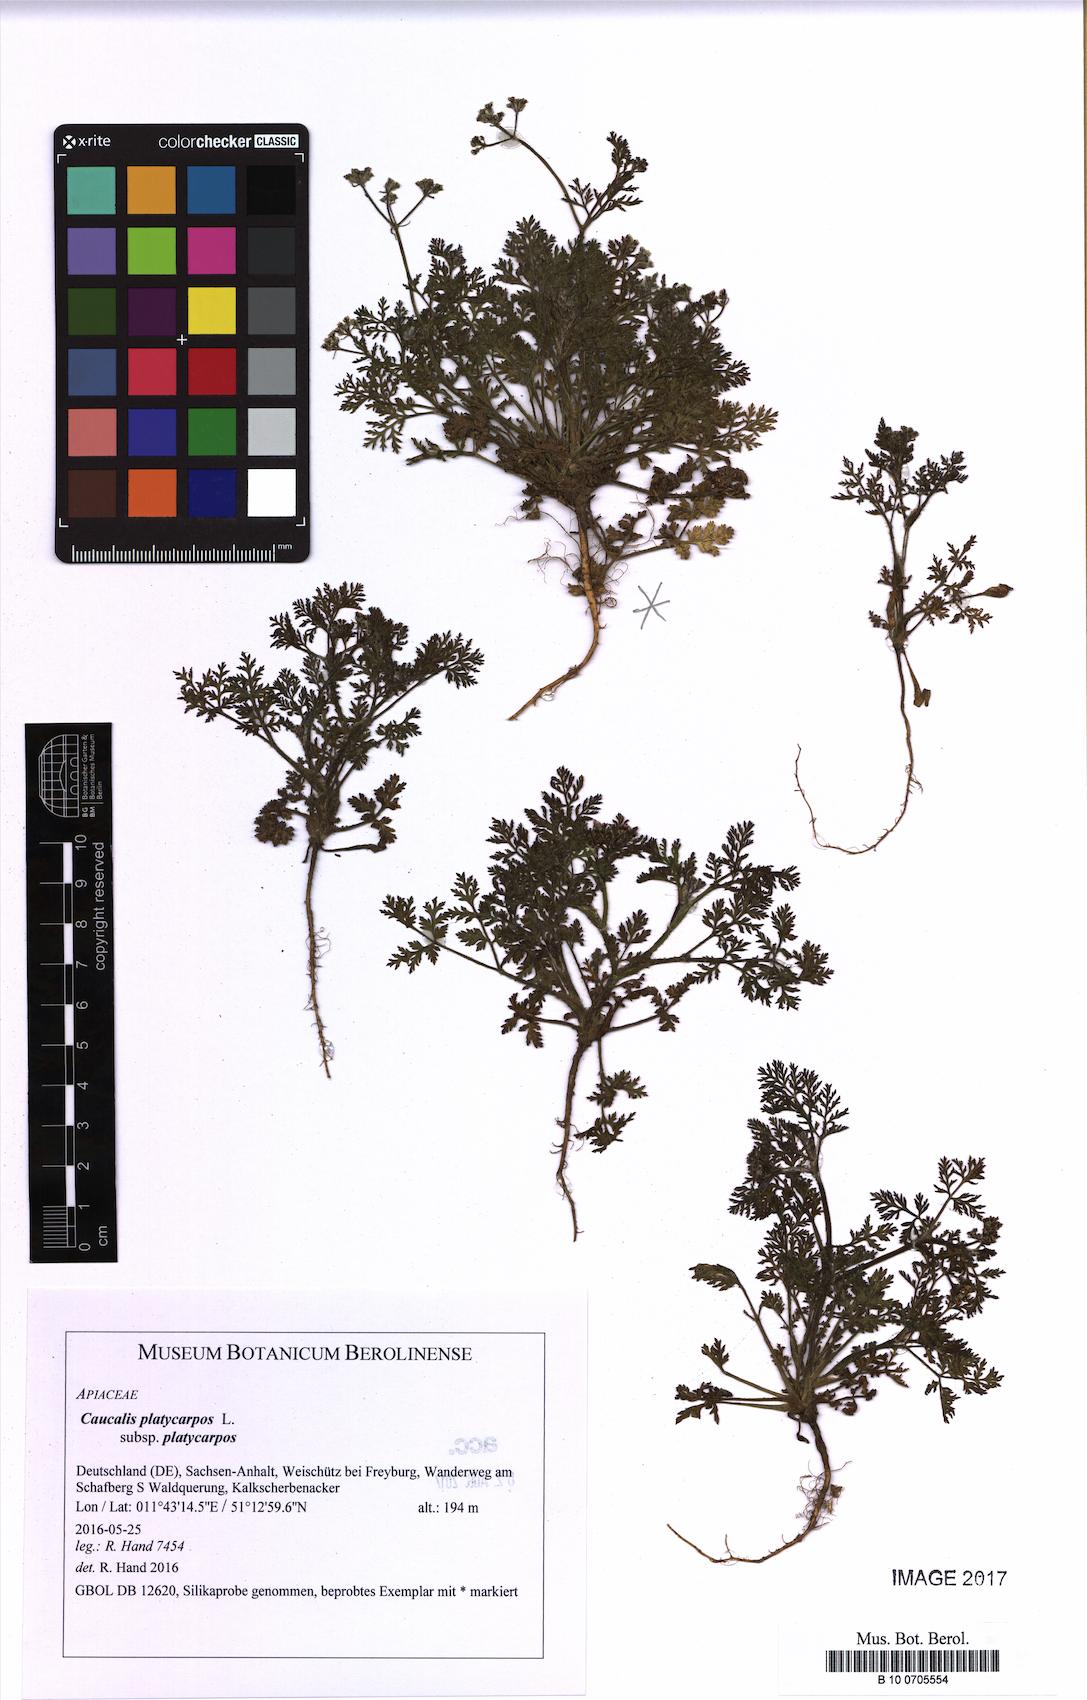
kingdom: Plantae
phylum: Tracheophyta
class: Magnoliopsida
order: Apiales
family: Apiaceae
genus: Caucalis
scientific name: Caucalis platycarpos
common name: Small bur-parsley
